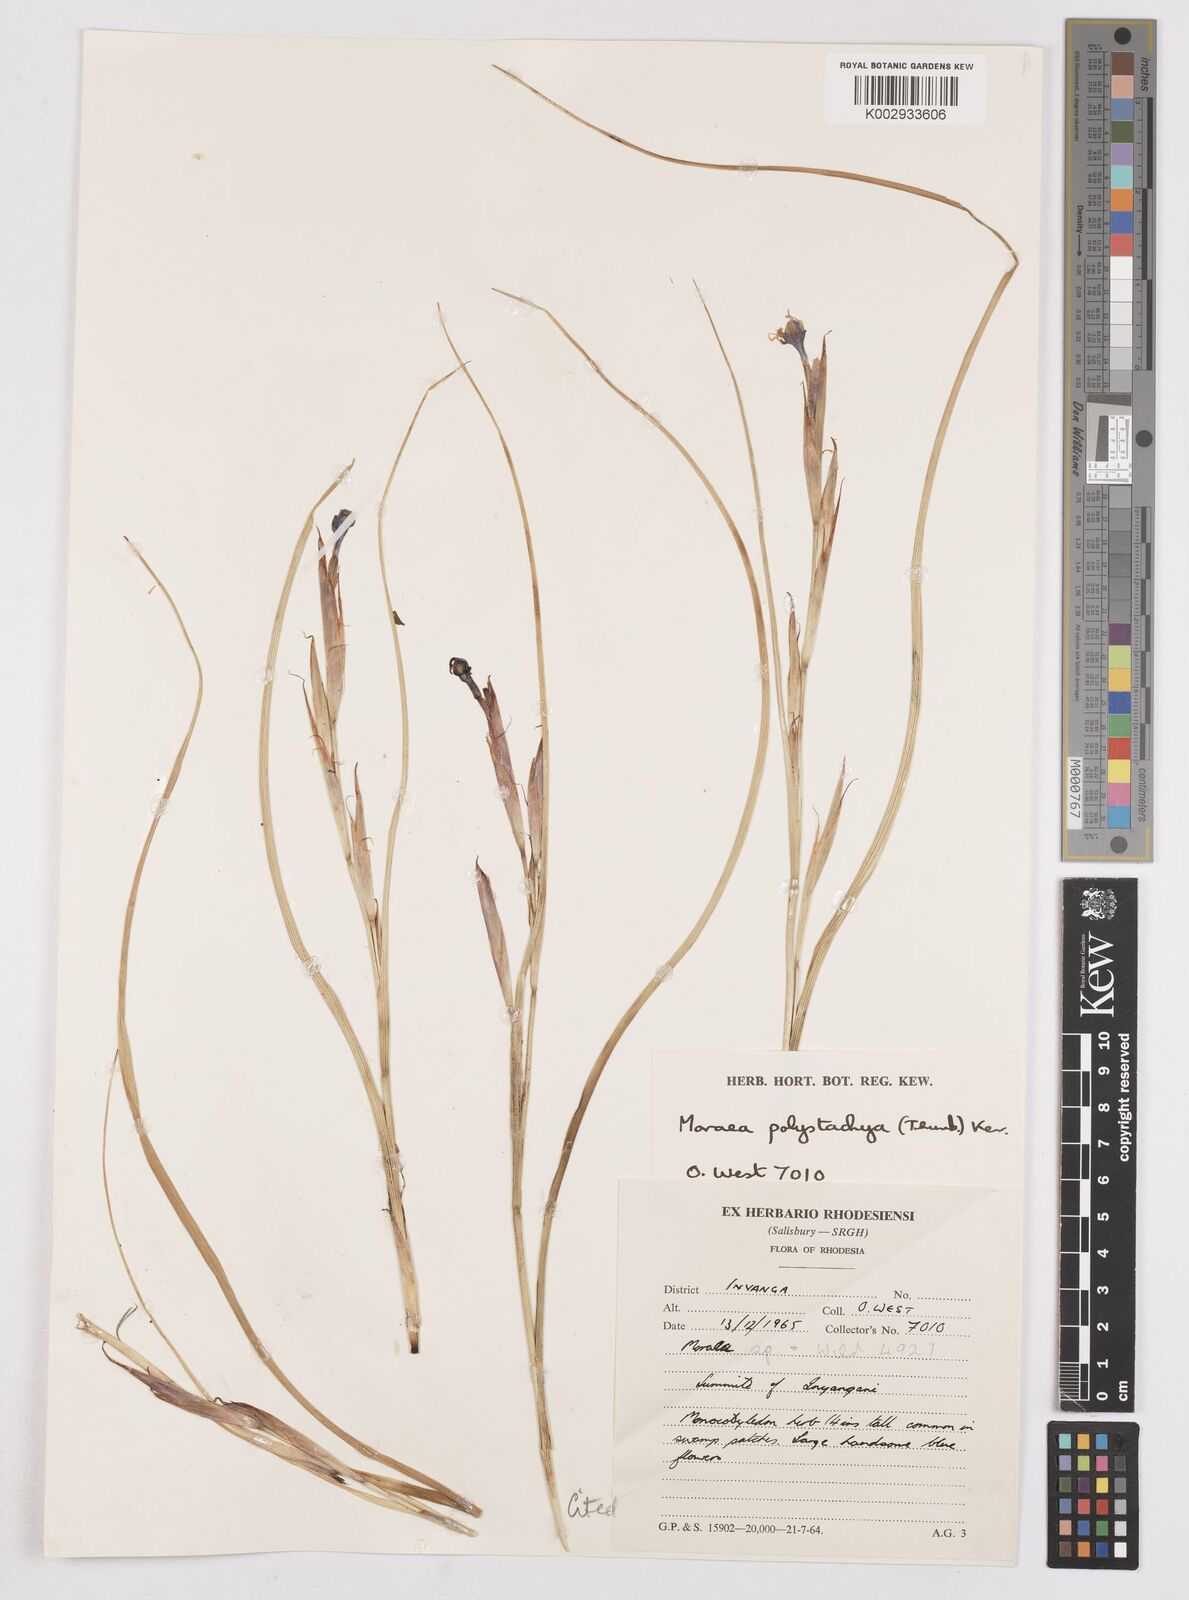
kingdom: Plantae
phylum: Tracheophyta
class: Liliopsida
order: Asparagales
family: Iridaceae
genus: Moraea
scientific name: Moraea carsonii
